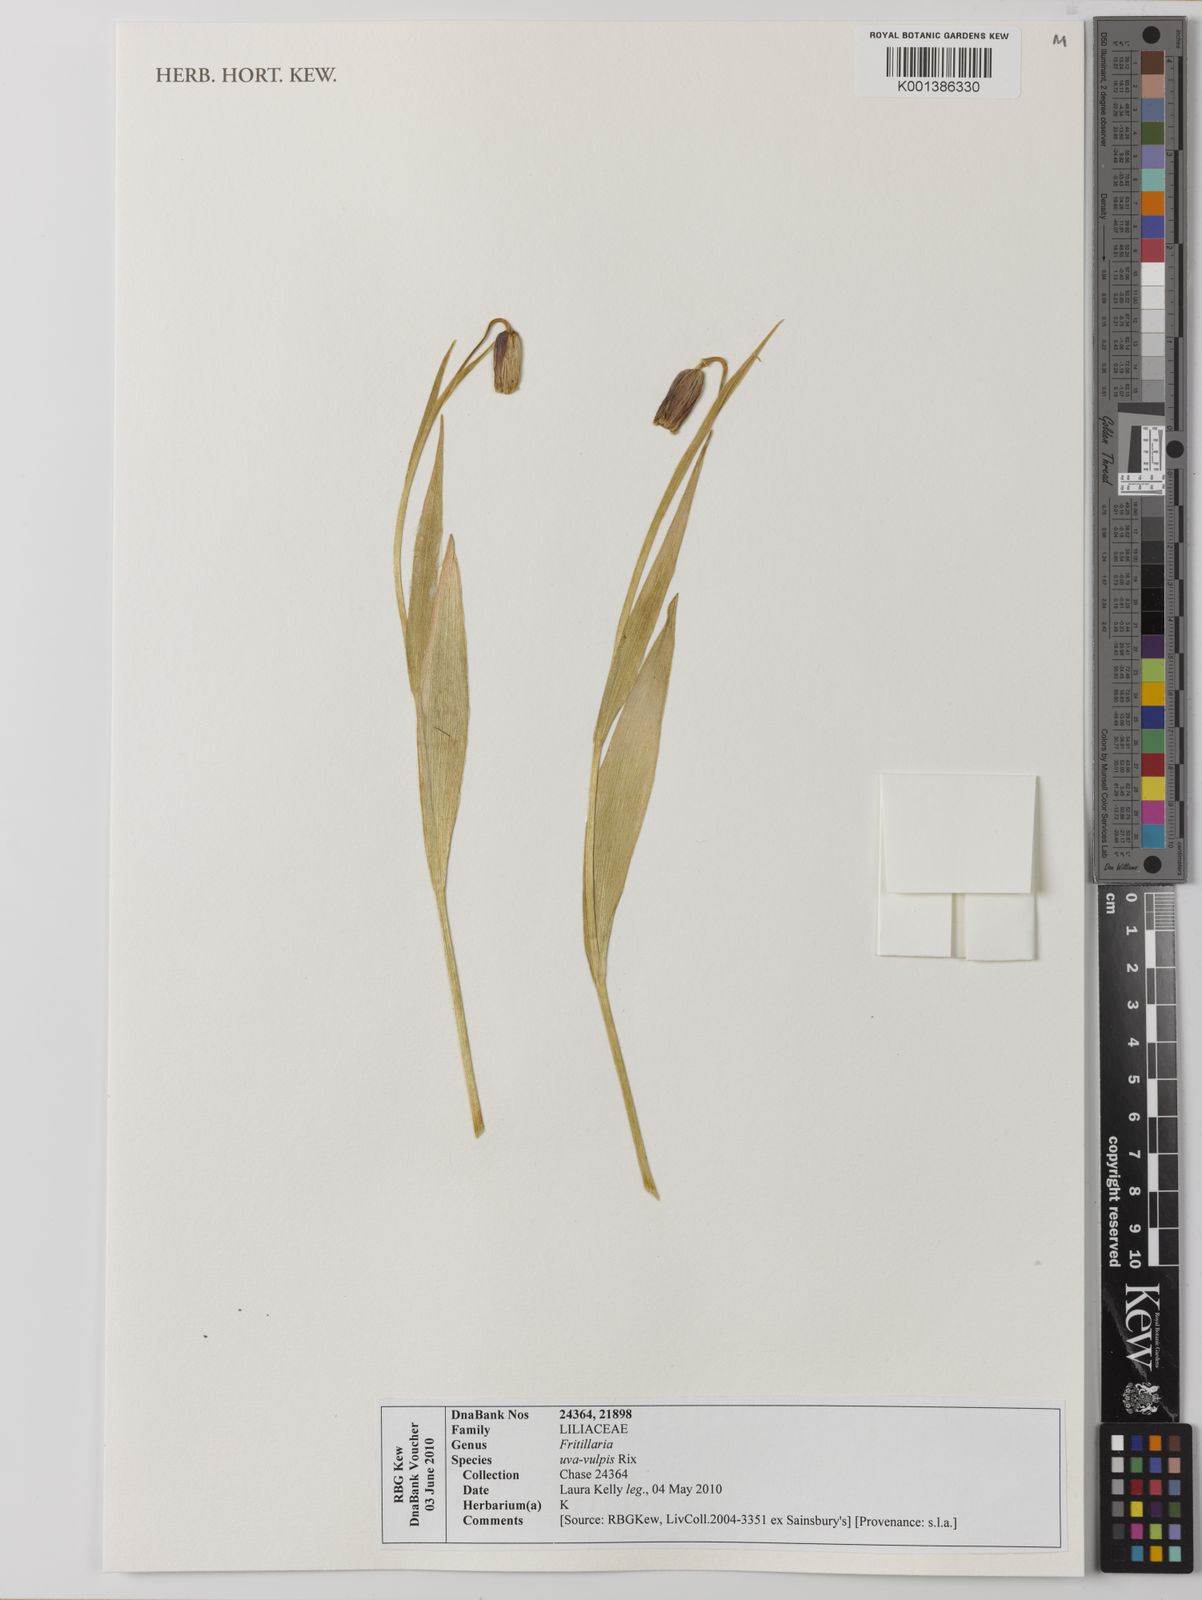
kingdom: Plantae
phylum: Tracheophyta
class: Liliopsida
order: Liliales
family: Liliaceae
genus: Fritillaria
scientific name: Fritillaria uva-vulpis
